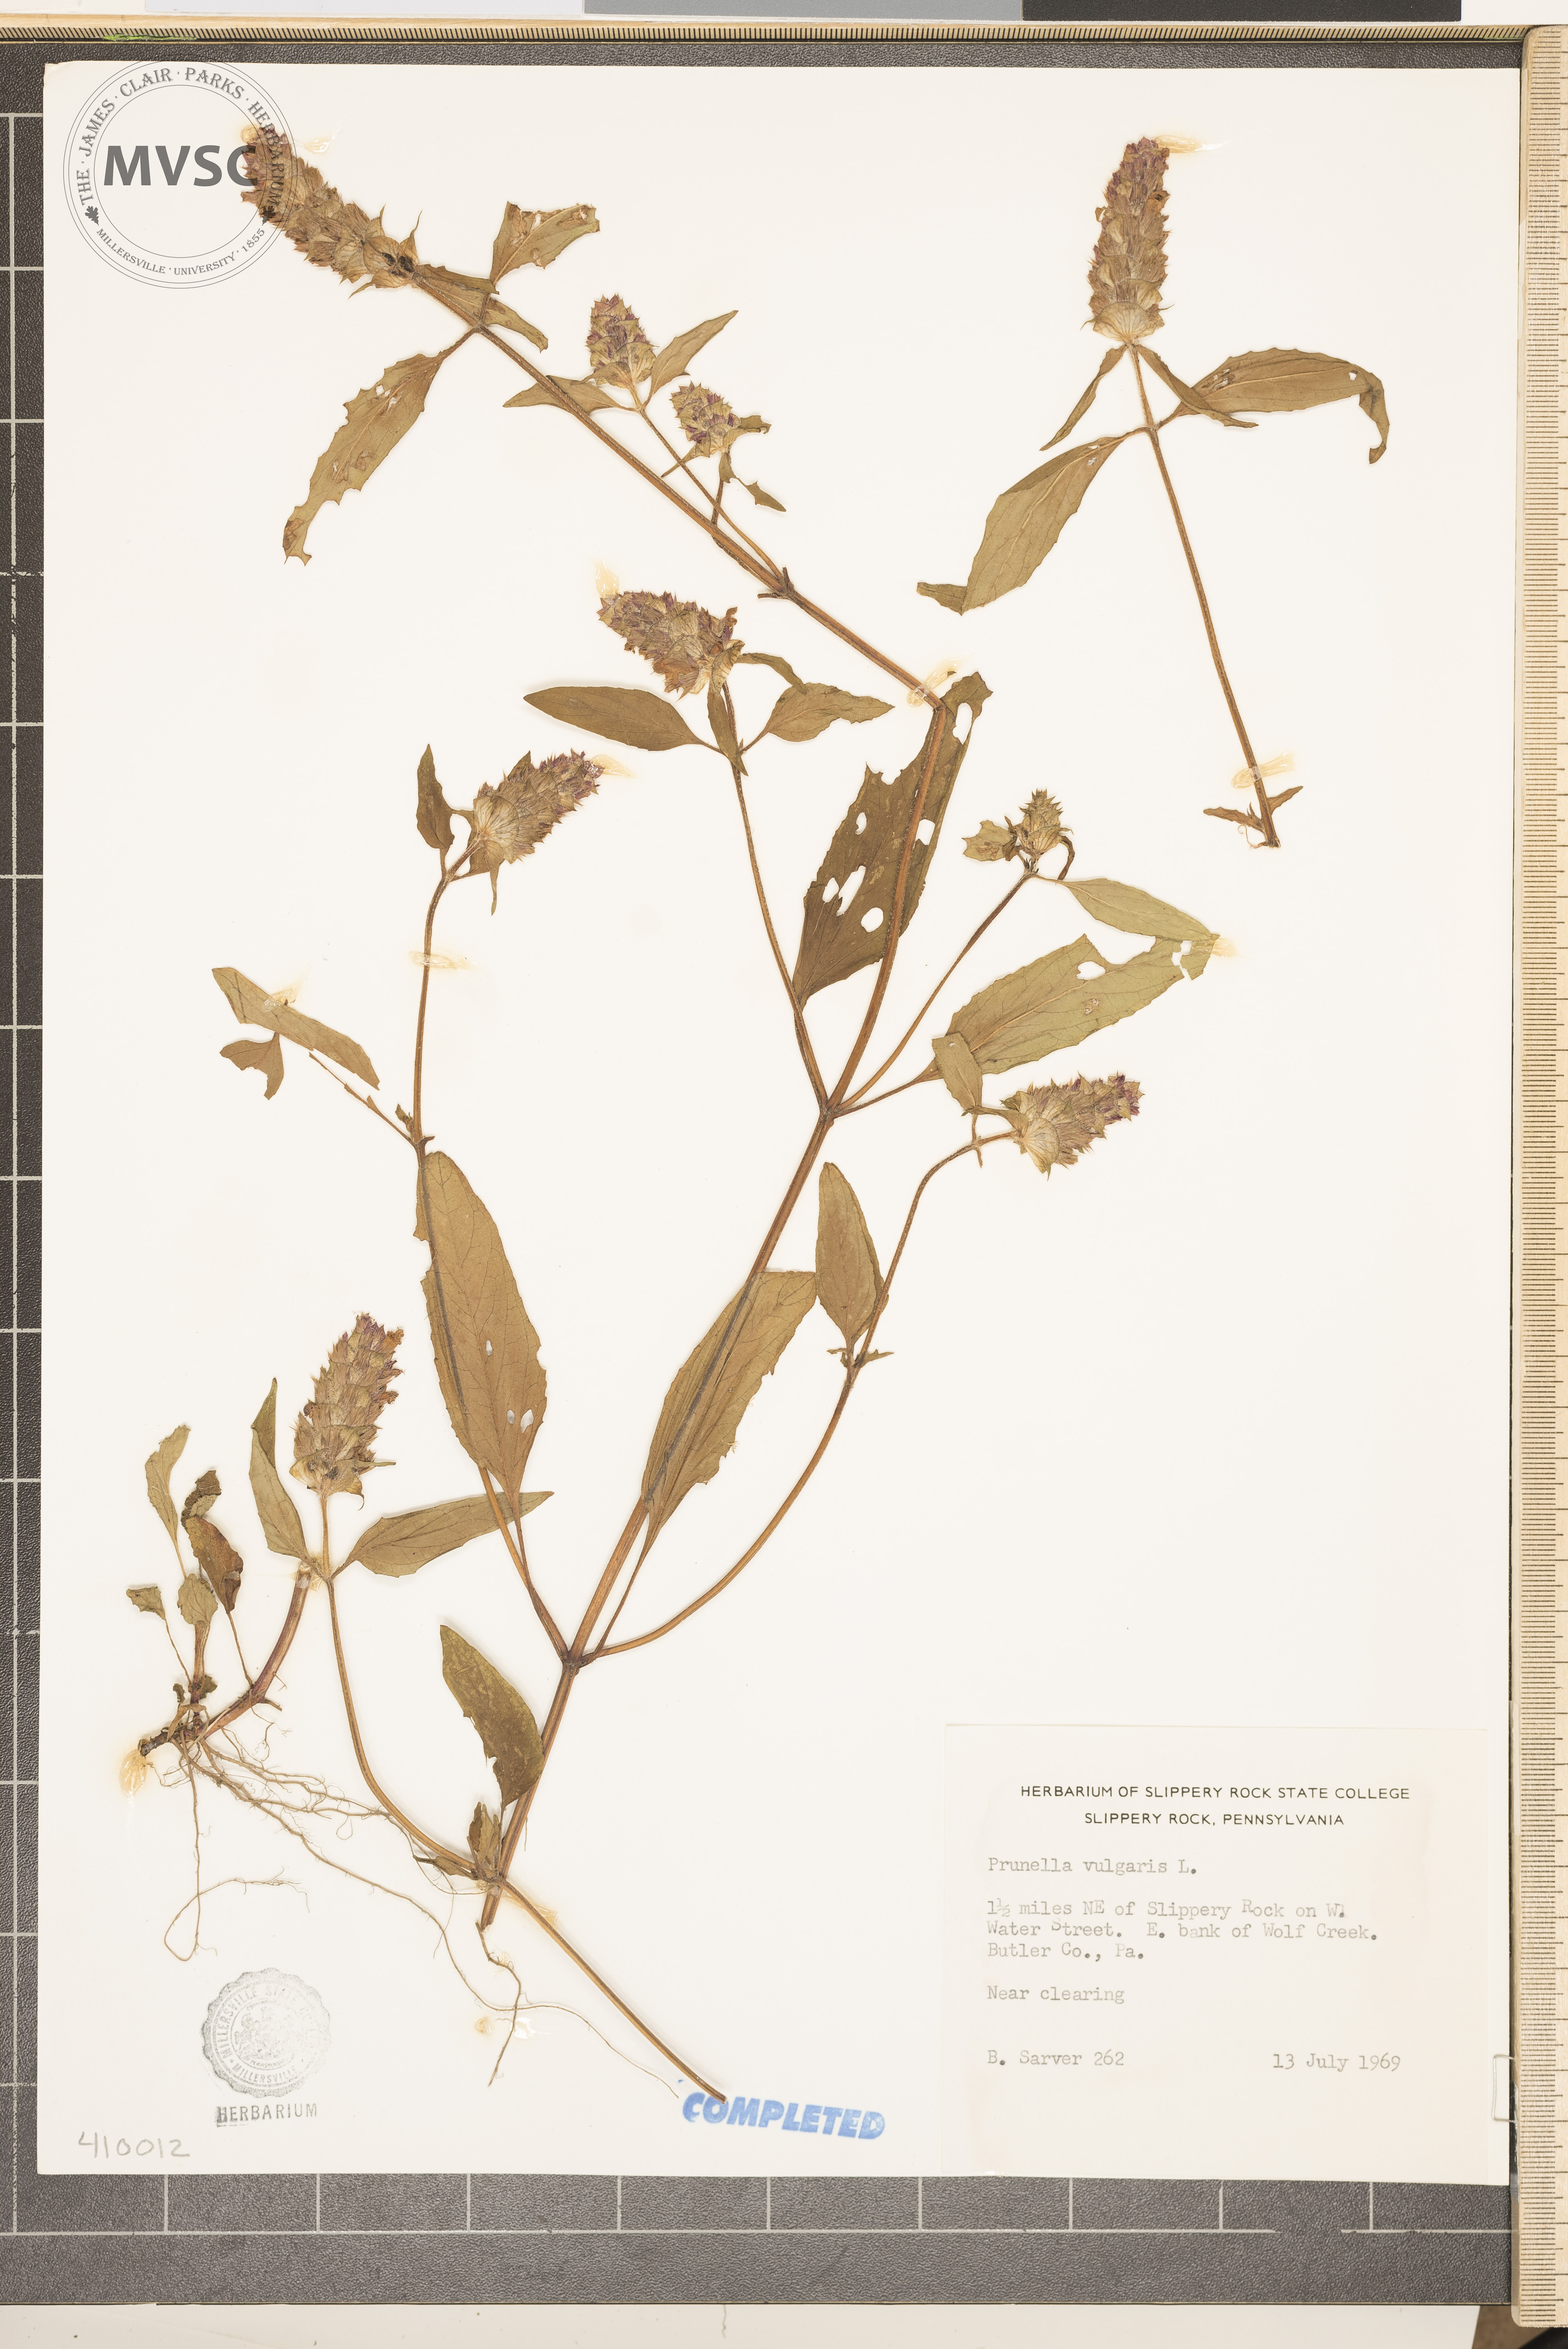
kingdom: Plantae
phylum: Tracheophyta
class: Magnoliopsida
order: Lamiales
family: Lamiaceae
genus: Prunella
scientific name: Prunella vulgaris
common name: Heal-all
